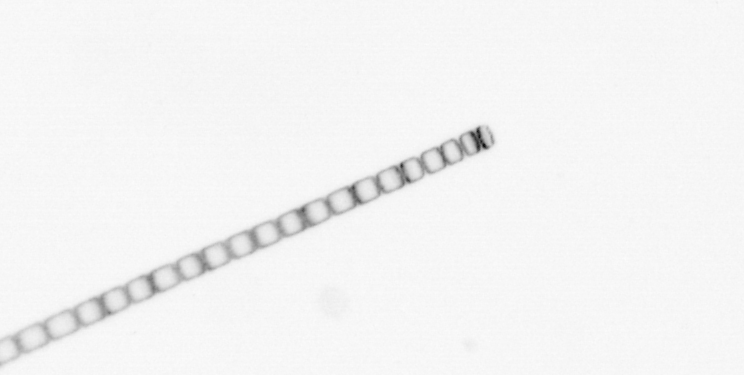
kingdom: Chromista
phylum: Ochrophyta
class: Bacillariophyceae
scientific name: Bacillariophyceae
